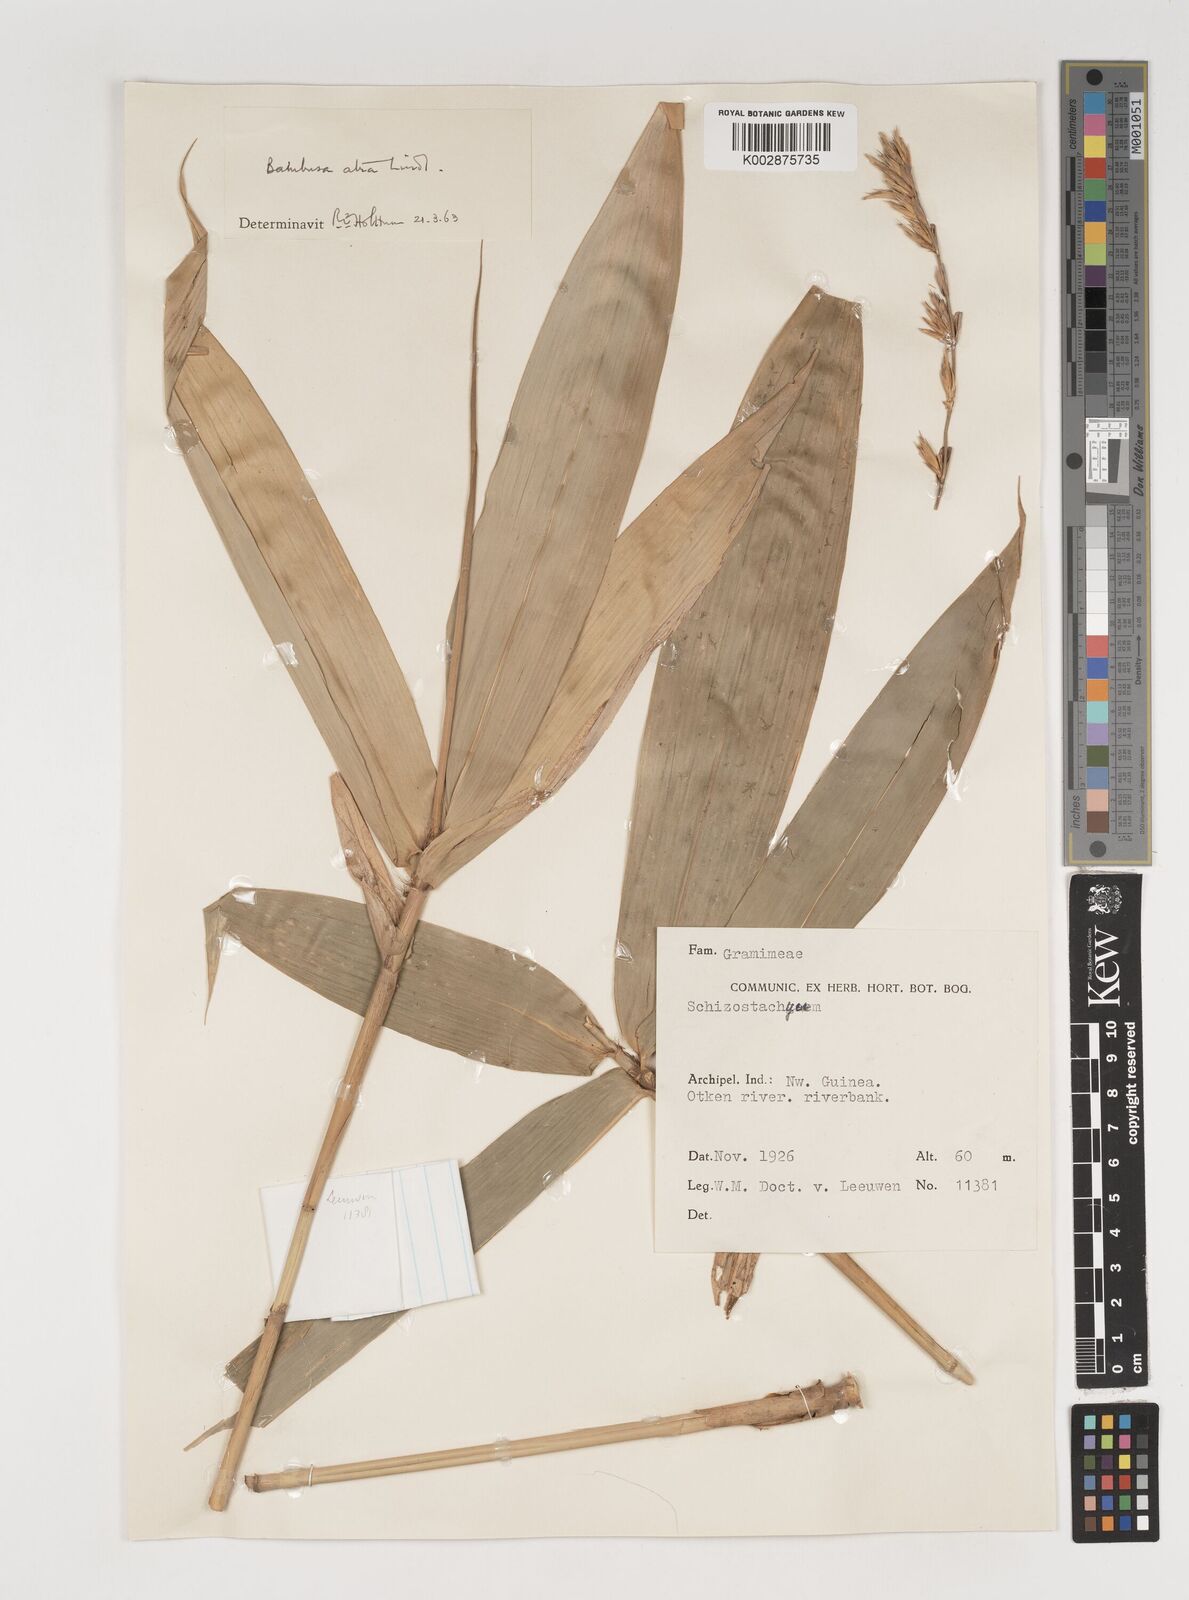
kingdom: Plantae
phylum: Tracheophyta
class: Liliopsida
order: Poales
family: Poaceae
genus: Neololeba
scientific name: Neololeba atra
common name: Cape bamboo
